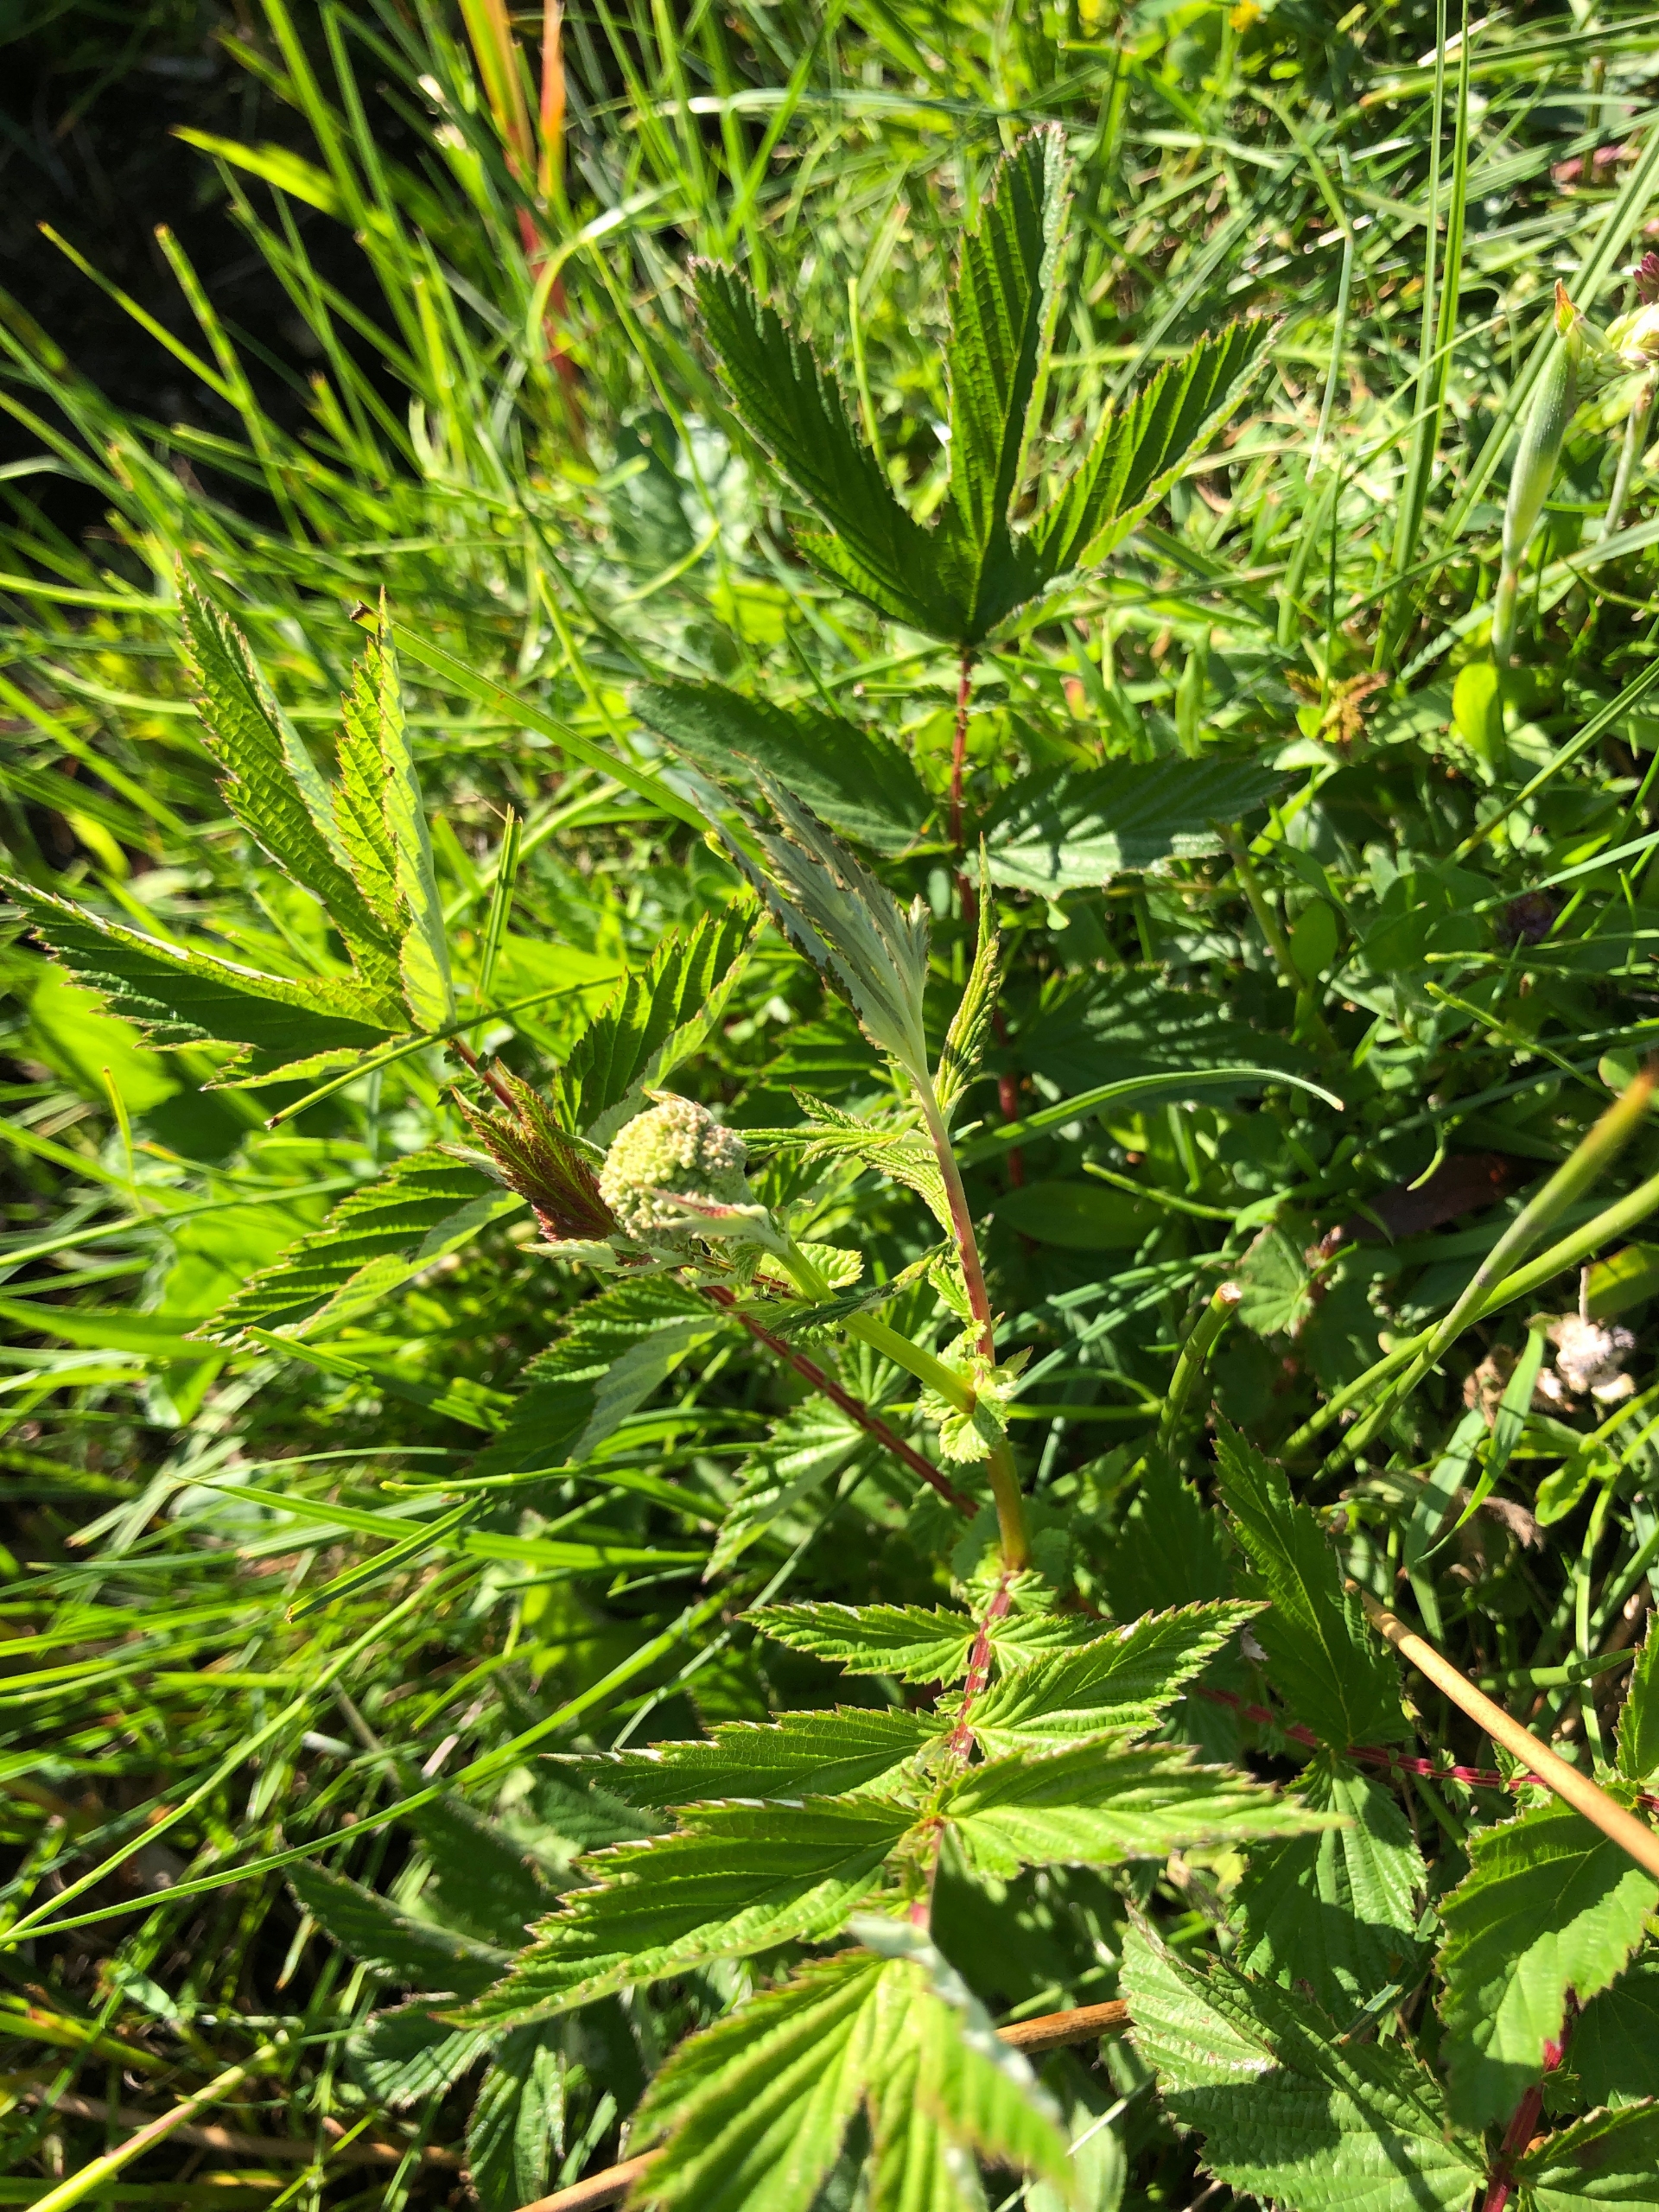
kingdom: Plantae
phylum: Tracheophyta
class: Magnoliopsida
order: Rosales
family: Rosaceae
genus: Filipendula
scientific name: Filipendula ulmaria
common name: Almindelig mjødurt
